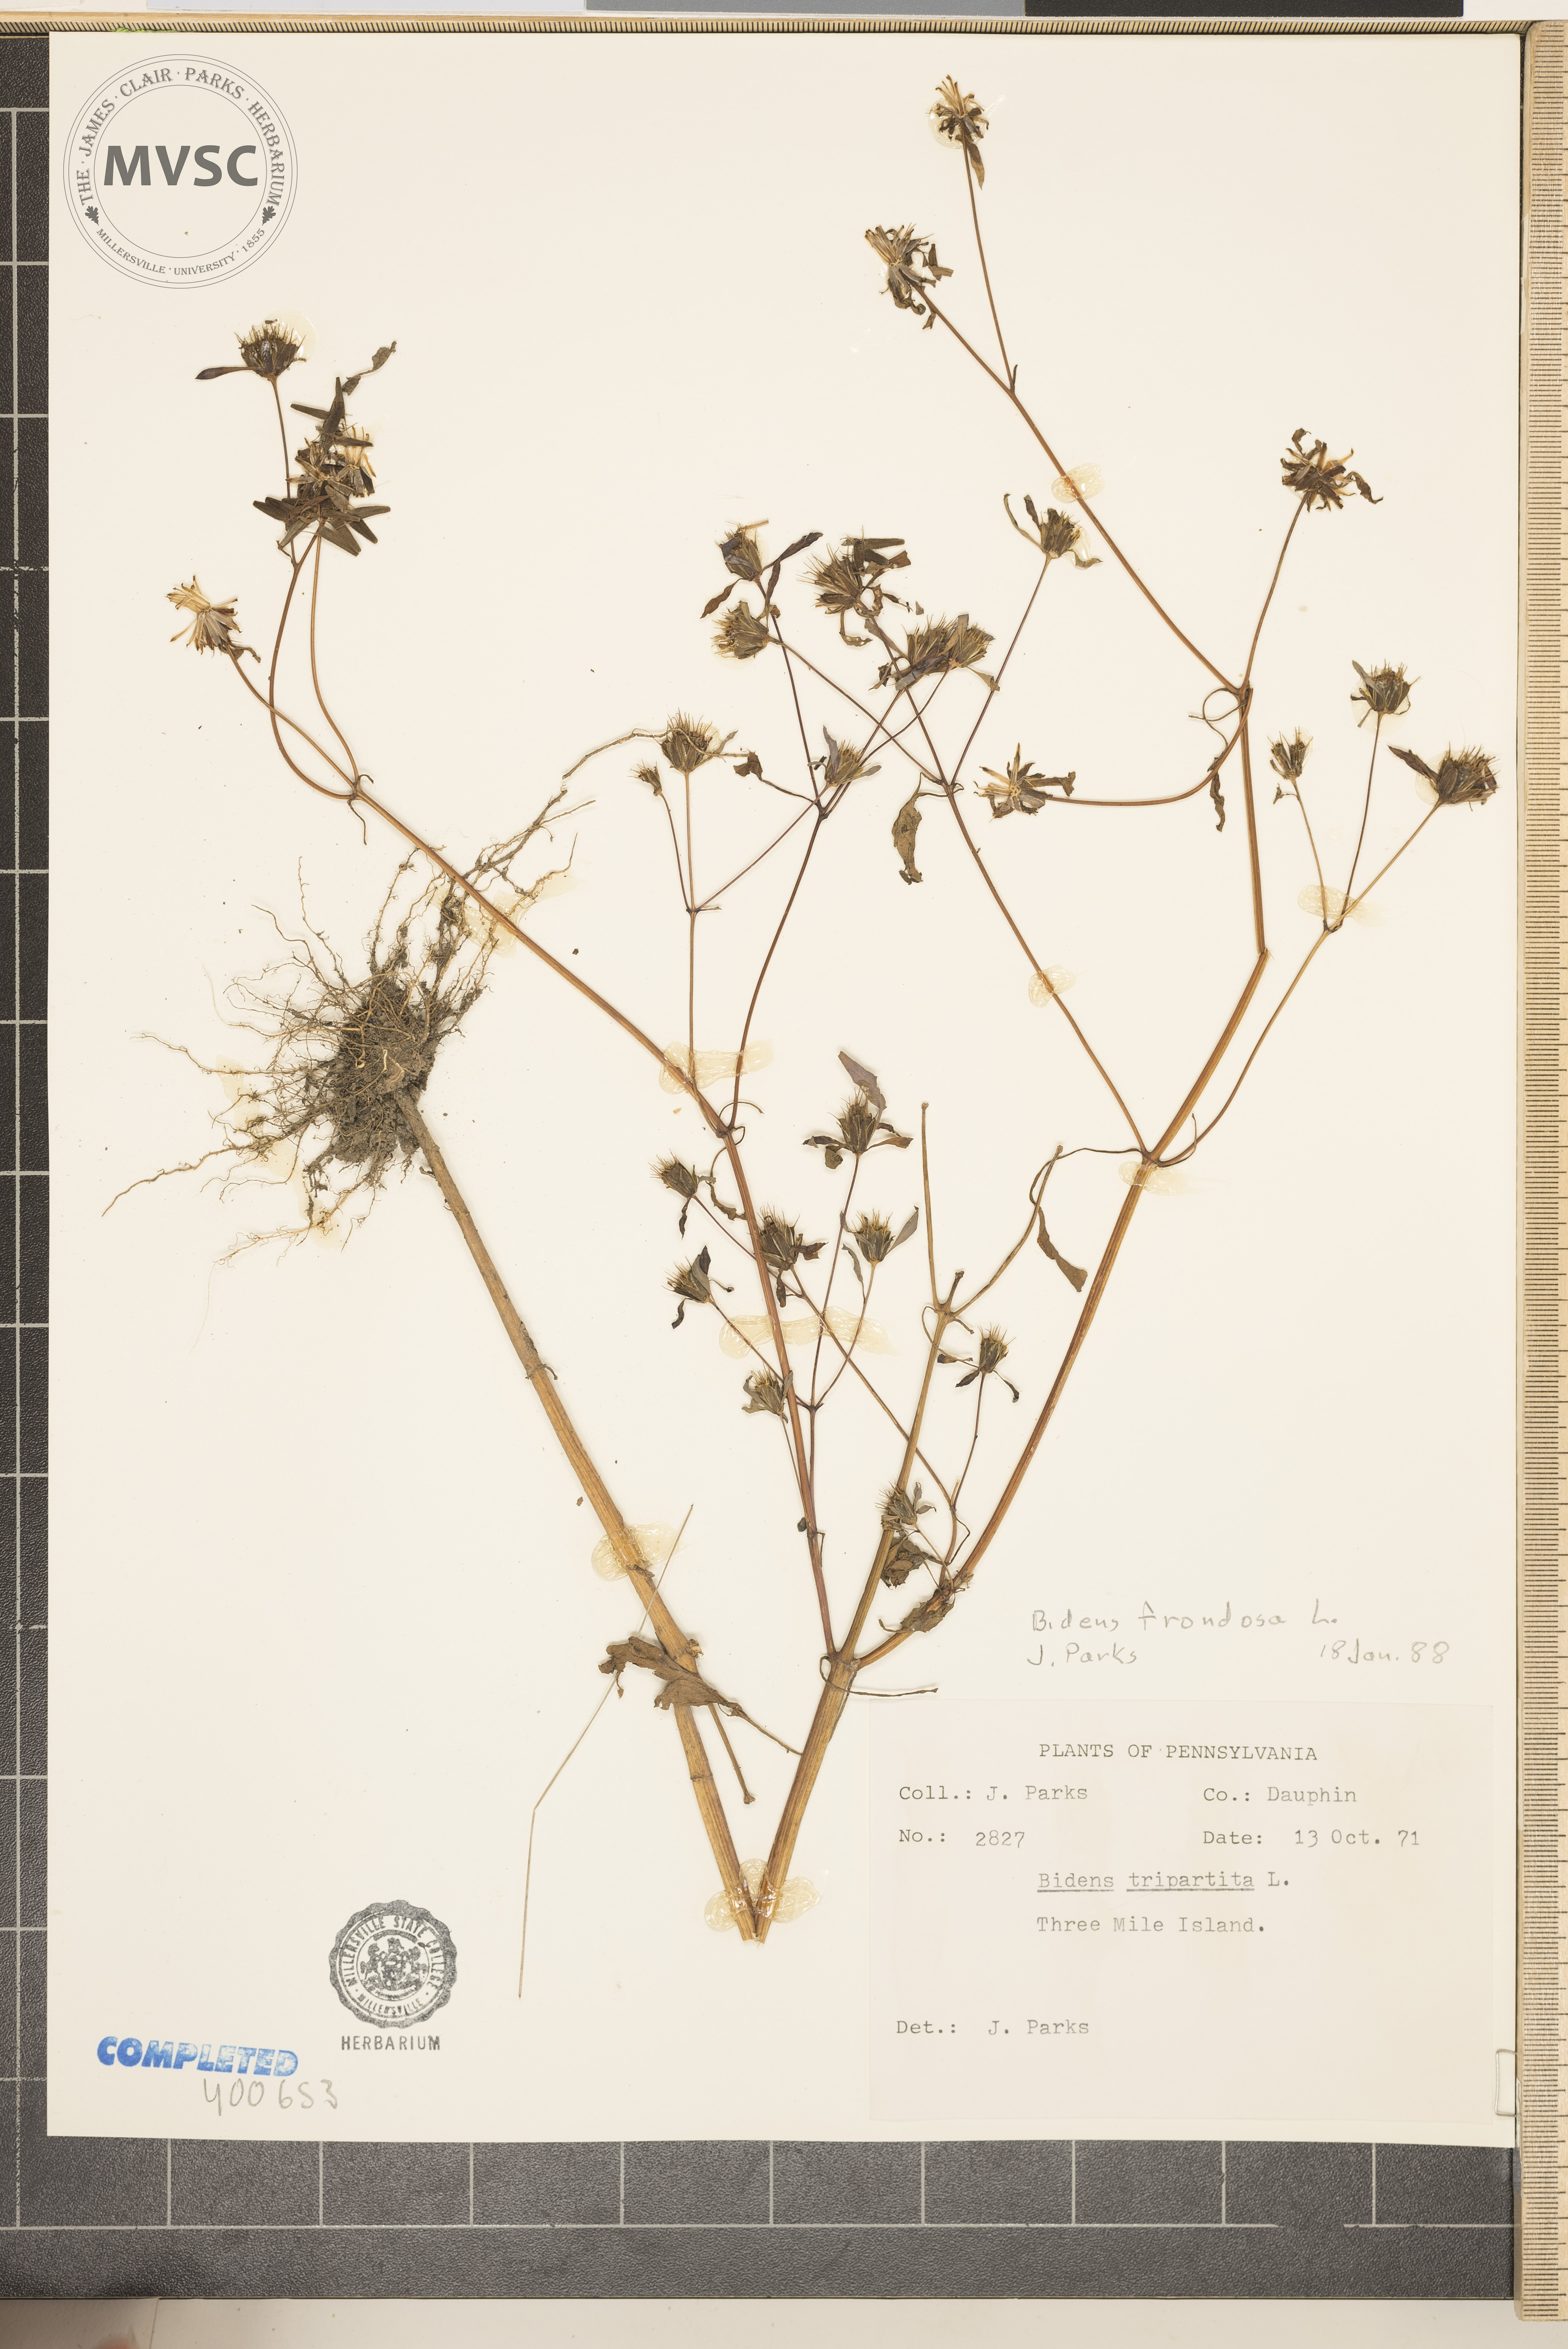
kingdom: Plantae
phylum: Tracheophyta
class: Magnoliopsida
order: Asterales
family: Asteraceae
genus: Bidens
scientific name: Bidens frondosa
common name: Beggarticks
